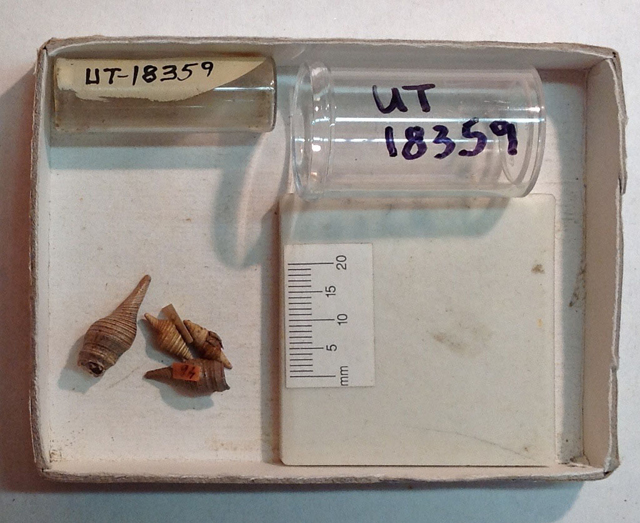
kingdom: Animalia
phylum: Mollusca
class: Gastropoda
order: Neogastropoda
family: Turridae
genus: Turris
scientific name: Turris Pleurotoma plenta
